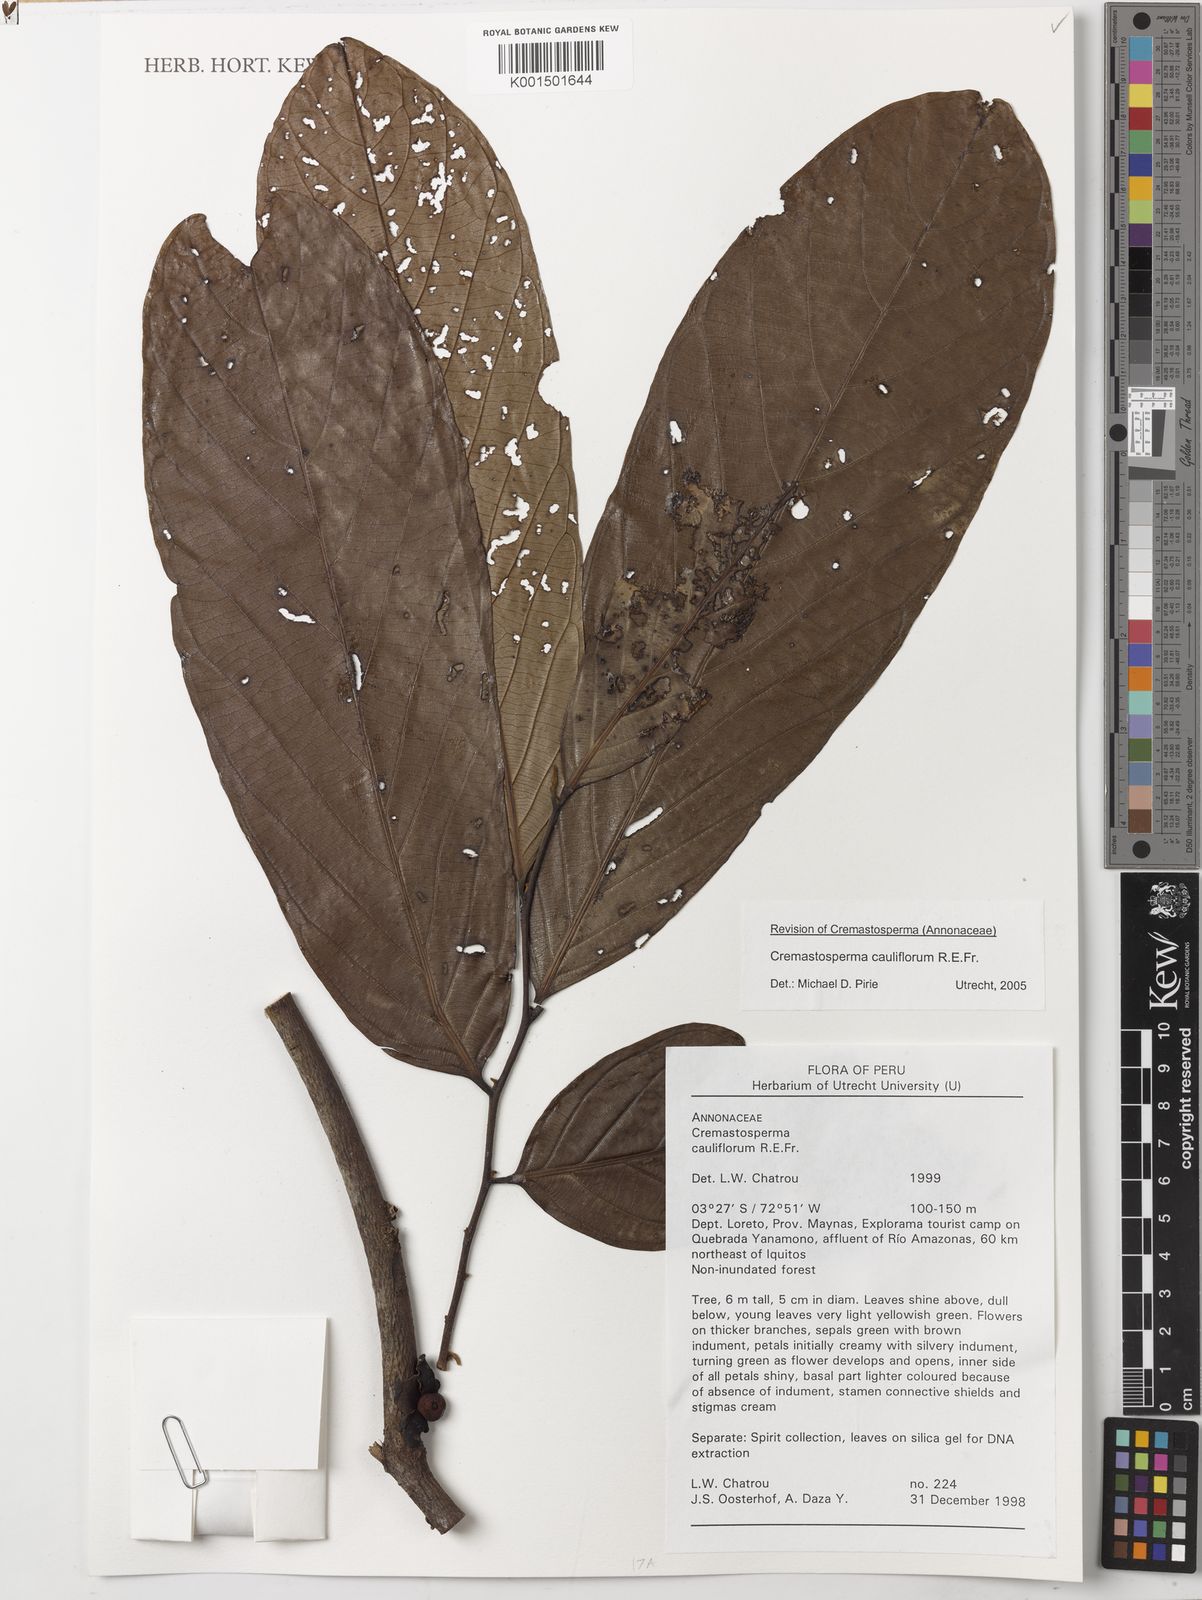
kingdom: Plantae
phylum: Tracheophyta
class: Magnoliopsida
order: Magnoliales
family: Annonaceae
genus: Cremastosperma
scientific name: Cremastosperma cauliflorum
